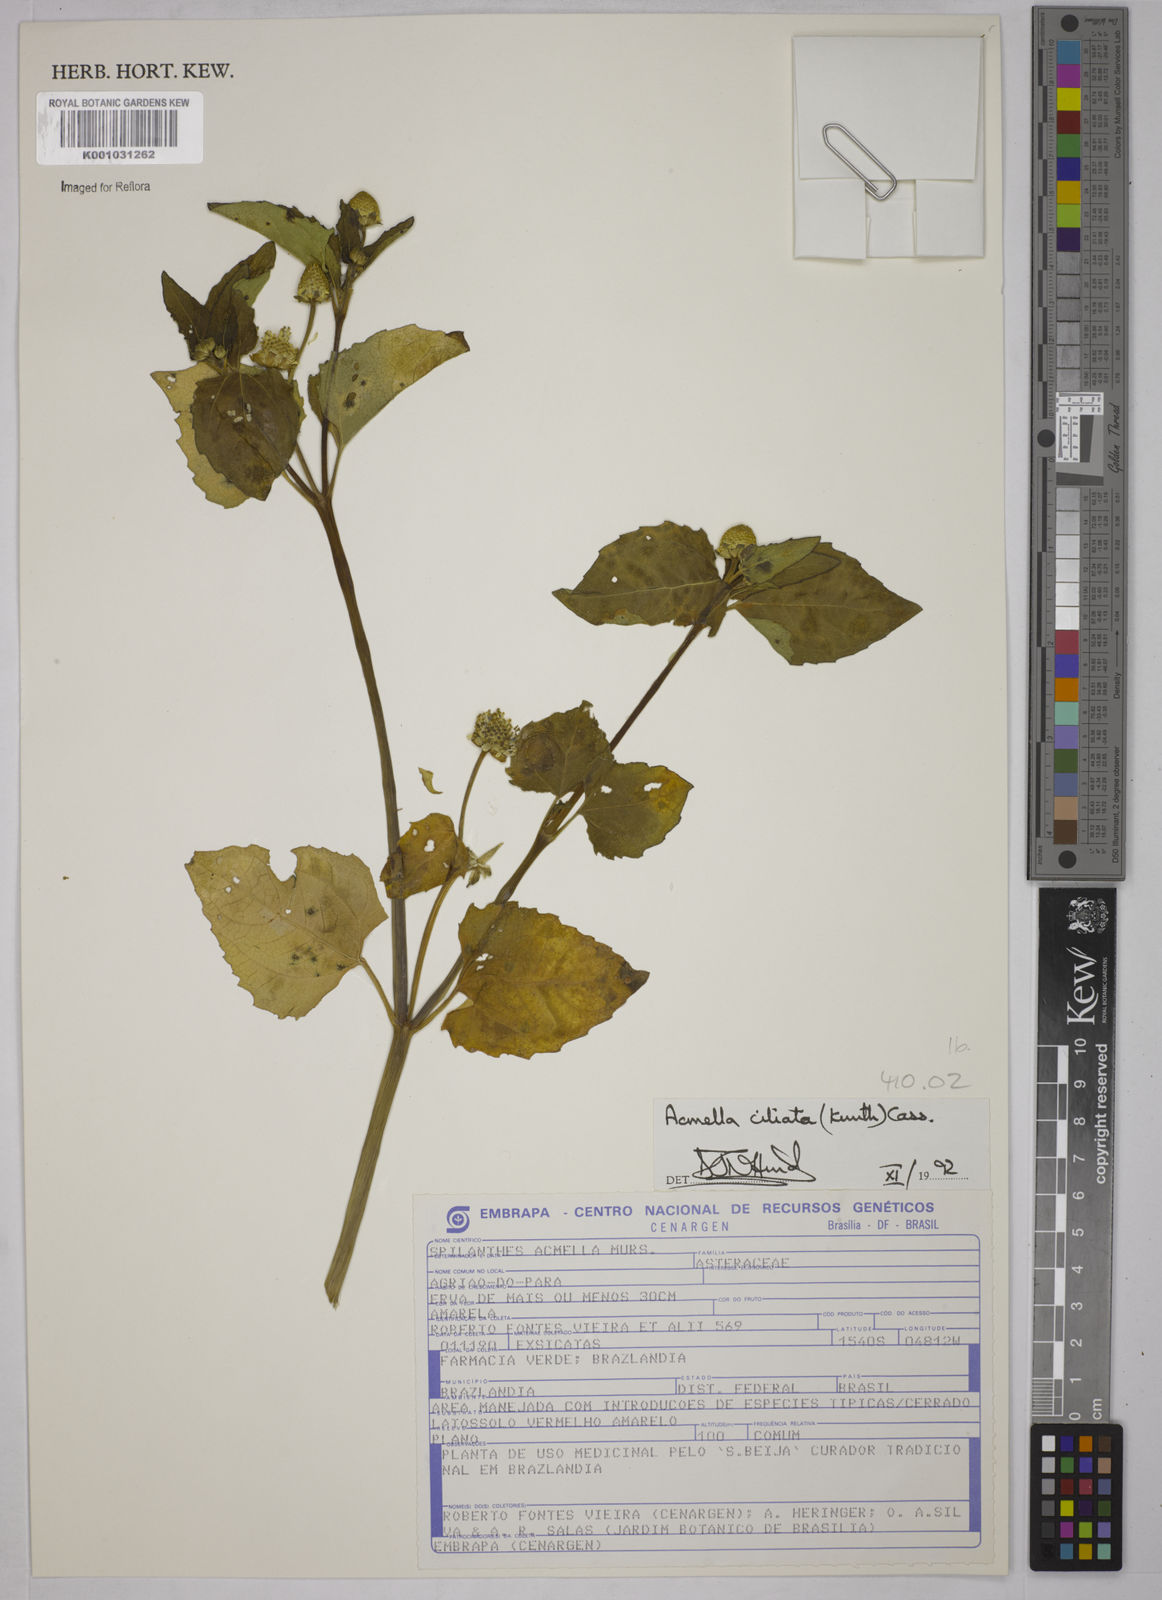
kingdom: Plantae
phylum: Tracheophyta
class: Magnoliopsida
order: Asterales
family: Asteraceae
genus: Acmella
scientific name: Acmella ciliata
